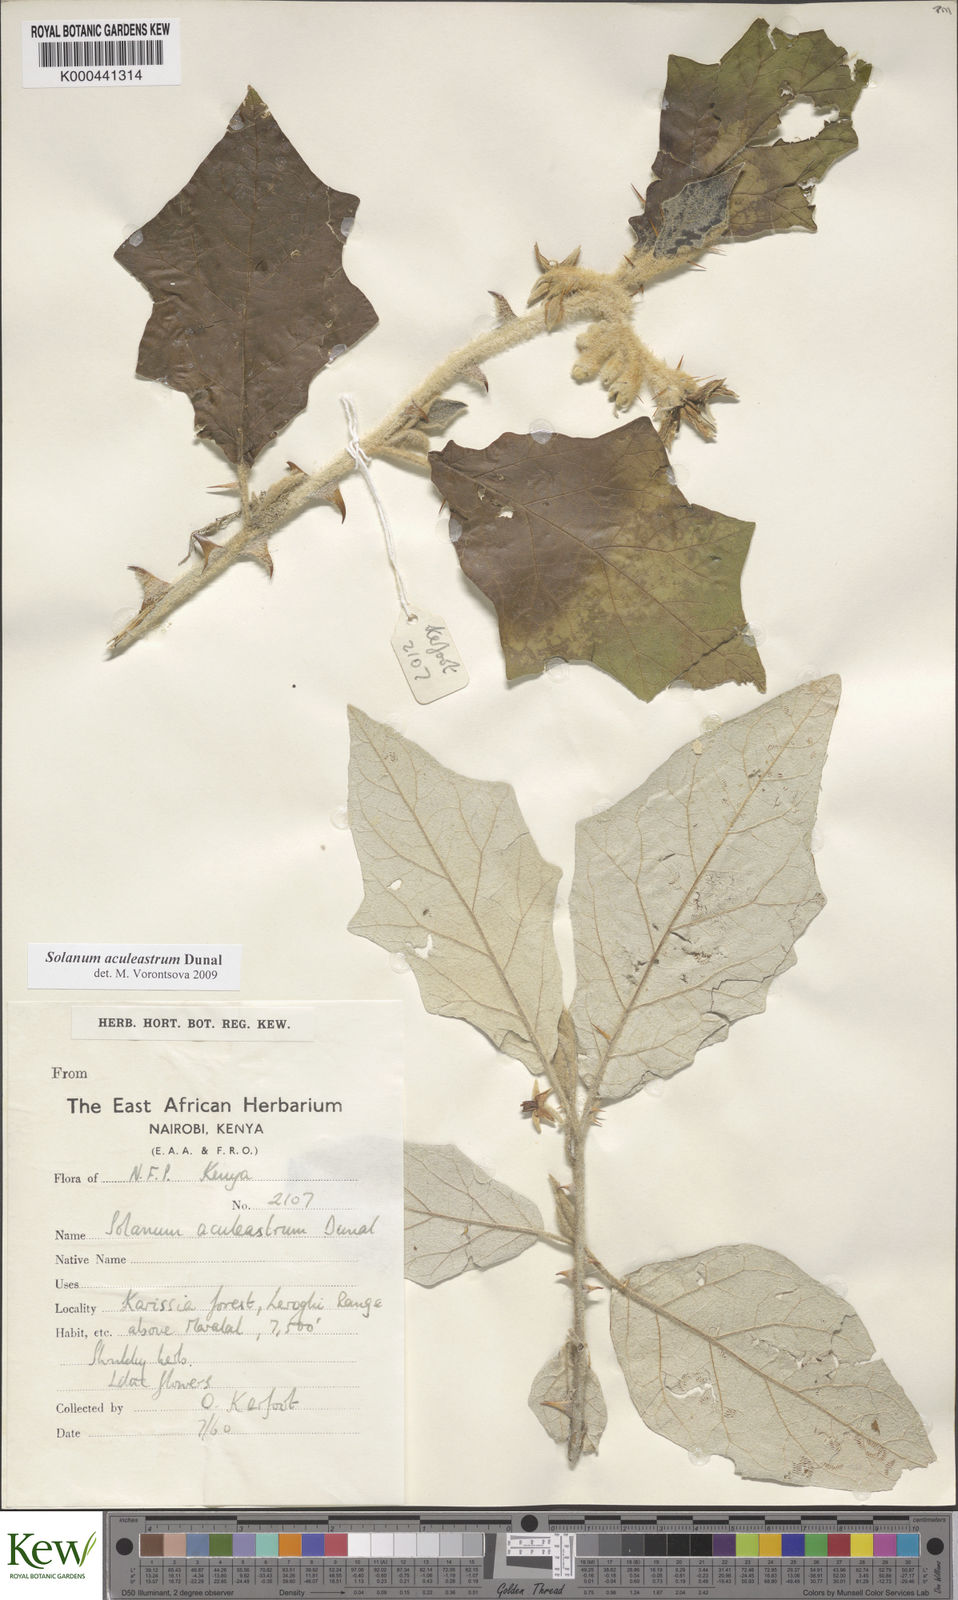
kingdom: Plantae
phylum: Tracheophyta
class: Magnoliopsida
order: Solanales
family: Solanaceae
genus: Solanum
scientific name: Solanum aculeastrum
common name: Goat bitter-apple
